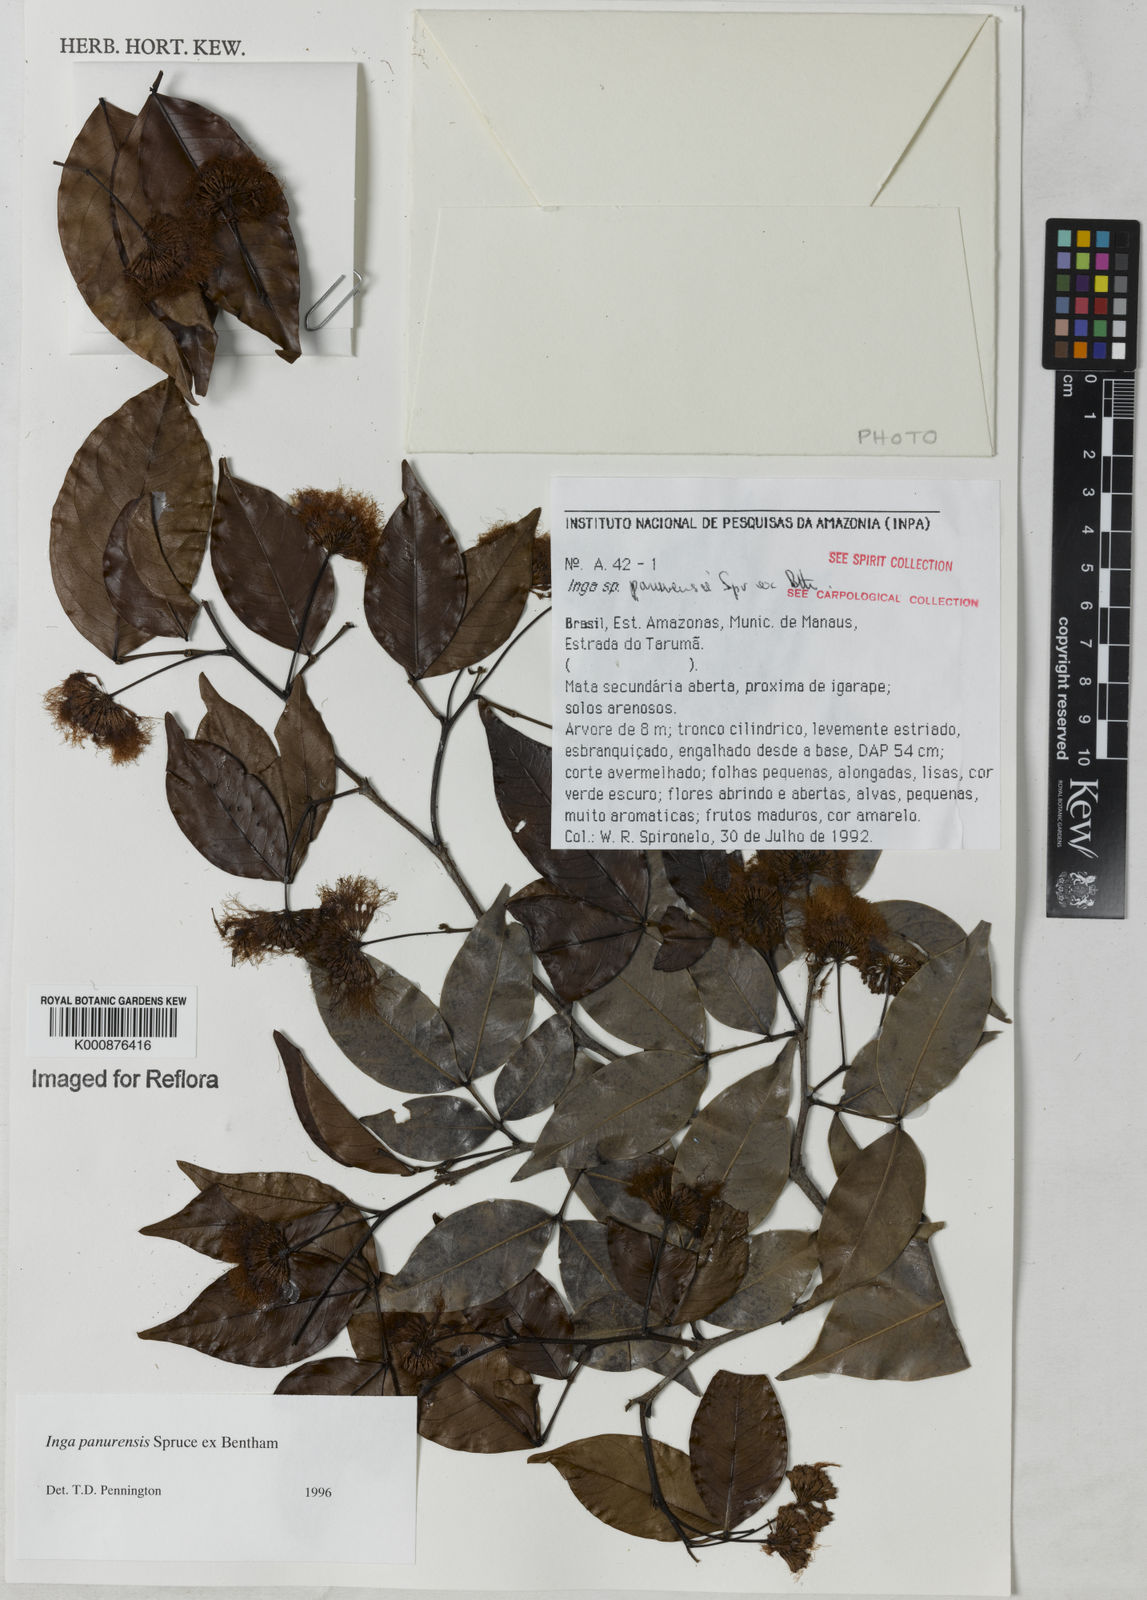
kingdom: Plantae
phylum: Tracheophyta
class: Magnoliopsida
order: Fabales
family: Fabaceae
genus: Inga
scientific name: Inga panurensis
